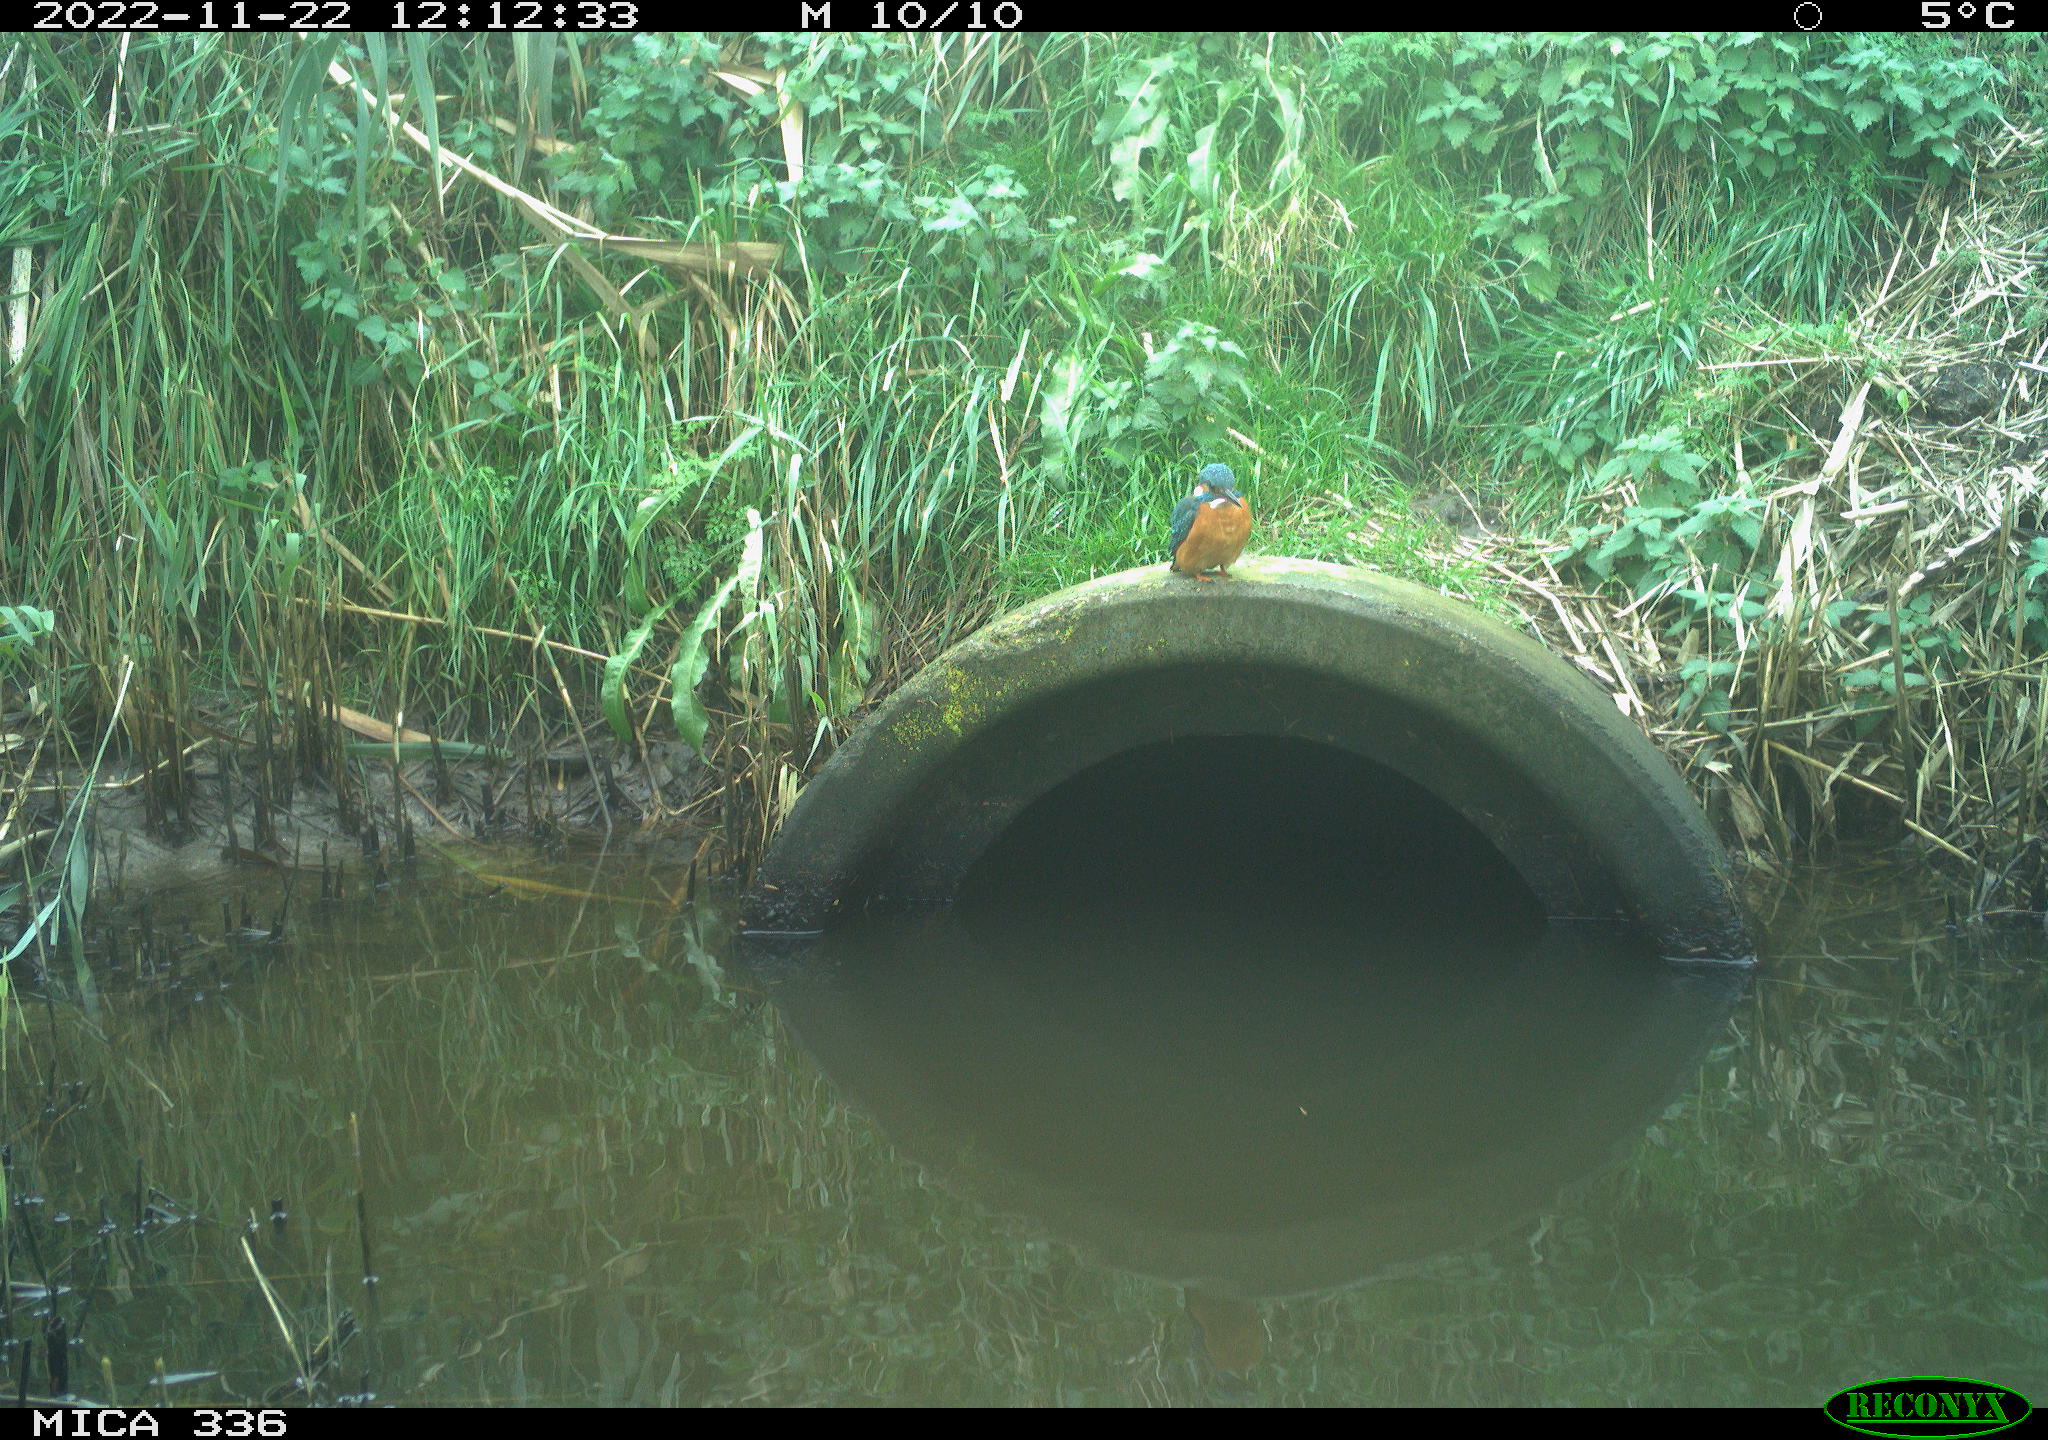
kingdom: Animalia
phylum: Chordata
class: Aves
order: Coraciiformes
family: Alcedinidae
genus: Alcedo
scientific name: Alcedo atthis
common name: Common kingfisher
